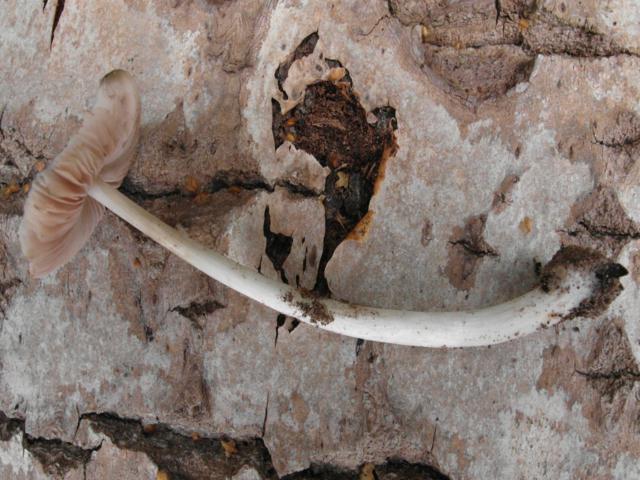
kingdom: Fungi
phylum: Basidiomycota
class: Agaricomycetes
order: Agaricales
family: Pluteaceae
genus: Pluteus
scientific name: Pluteus salicinus
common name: stiv skærmhat
